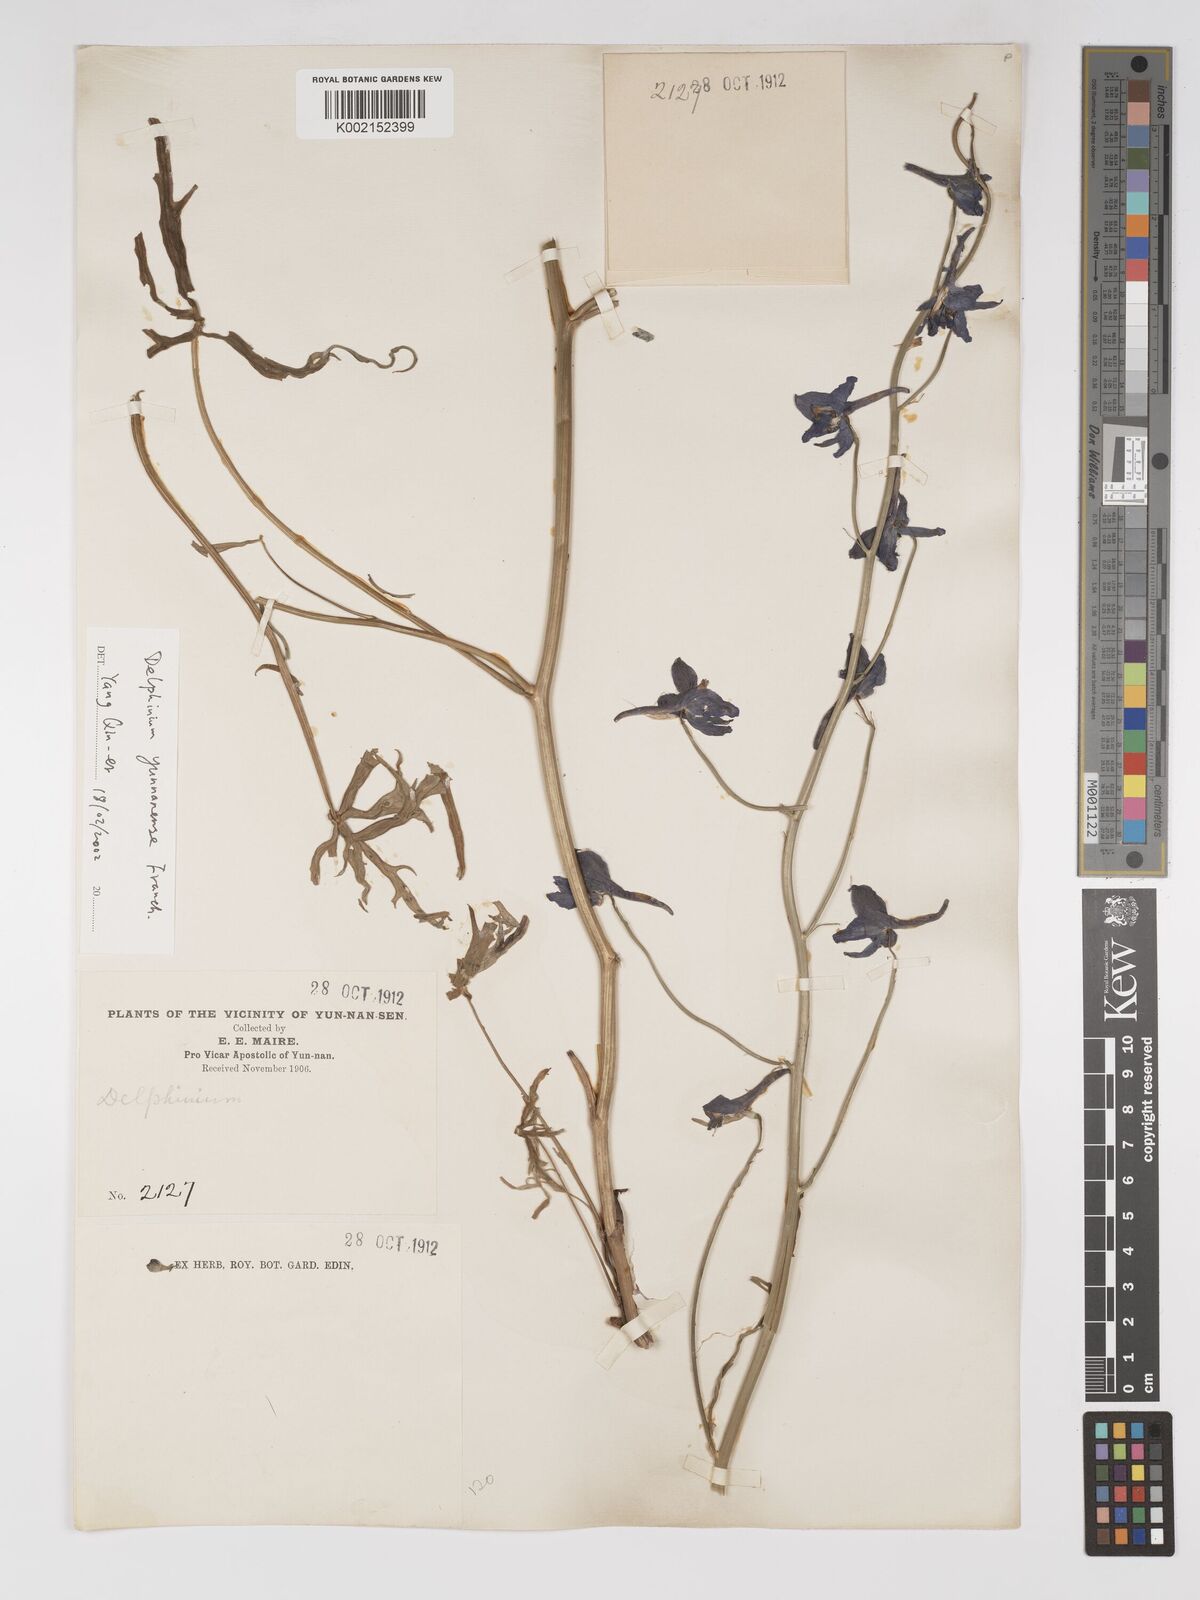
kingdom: Plantae
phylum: Tracheophyta
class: Magnoliopsida
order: Ranunculales
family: Ranunculaceae
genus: Delphinium
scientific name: Delphinium yunnanense
